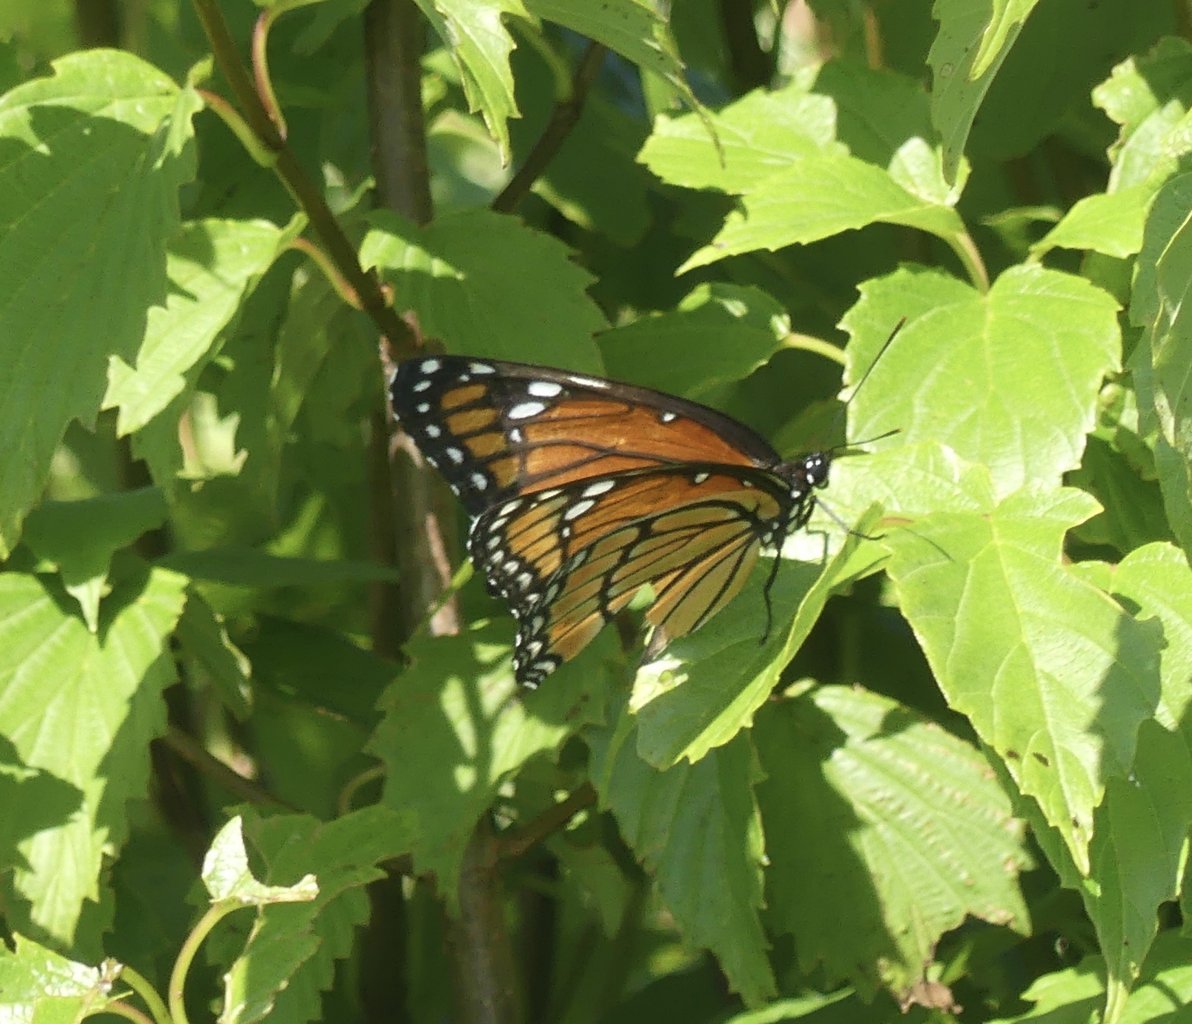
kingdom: Animalia
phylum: Arthropoda
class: Insecta
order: Lepidoptera
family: Nymphalidae
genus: Limenitis
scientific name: Limenitis archippus
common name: Viceroy
